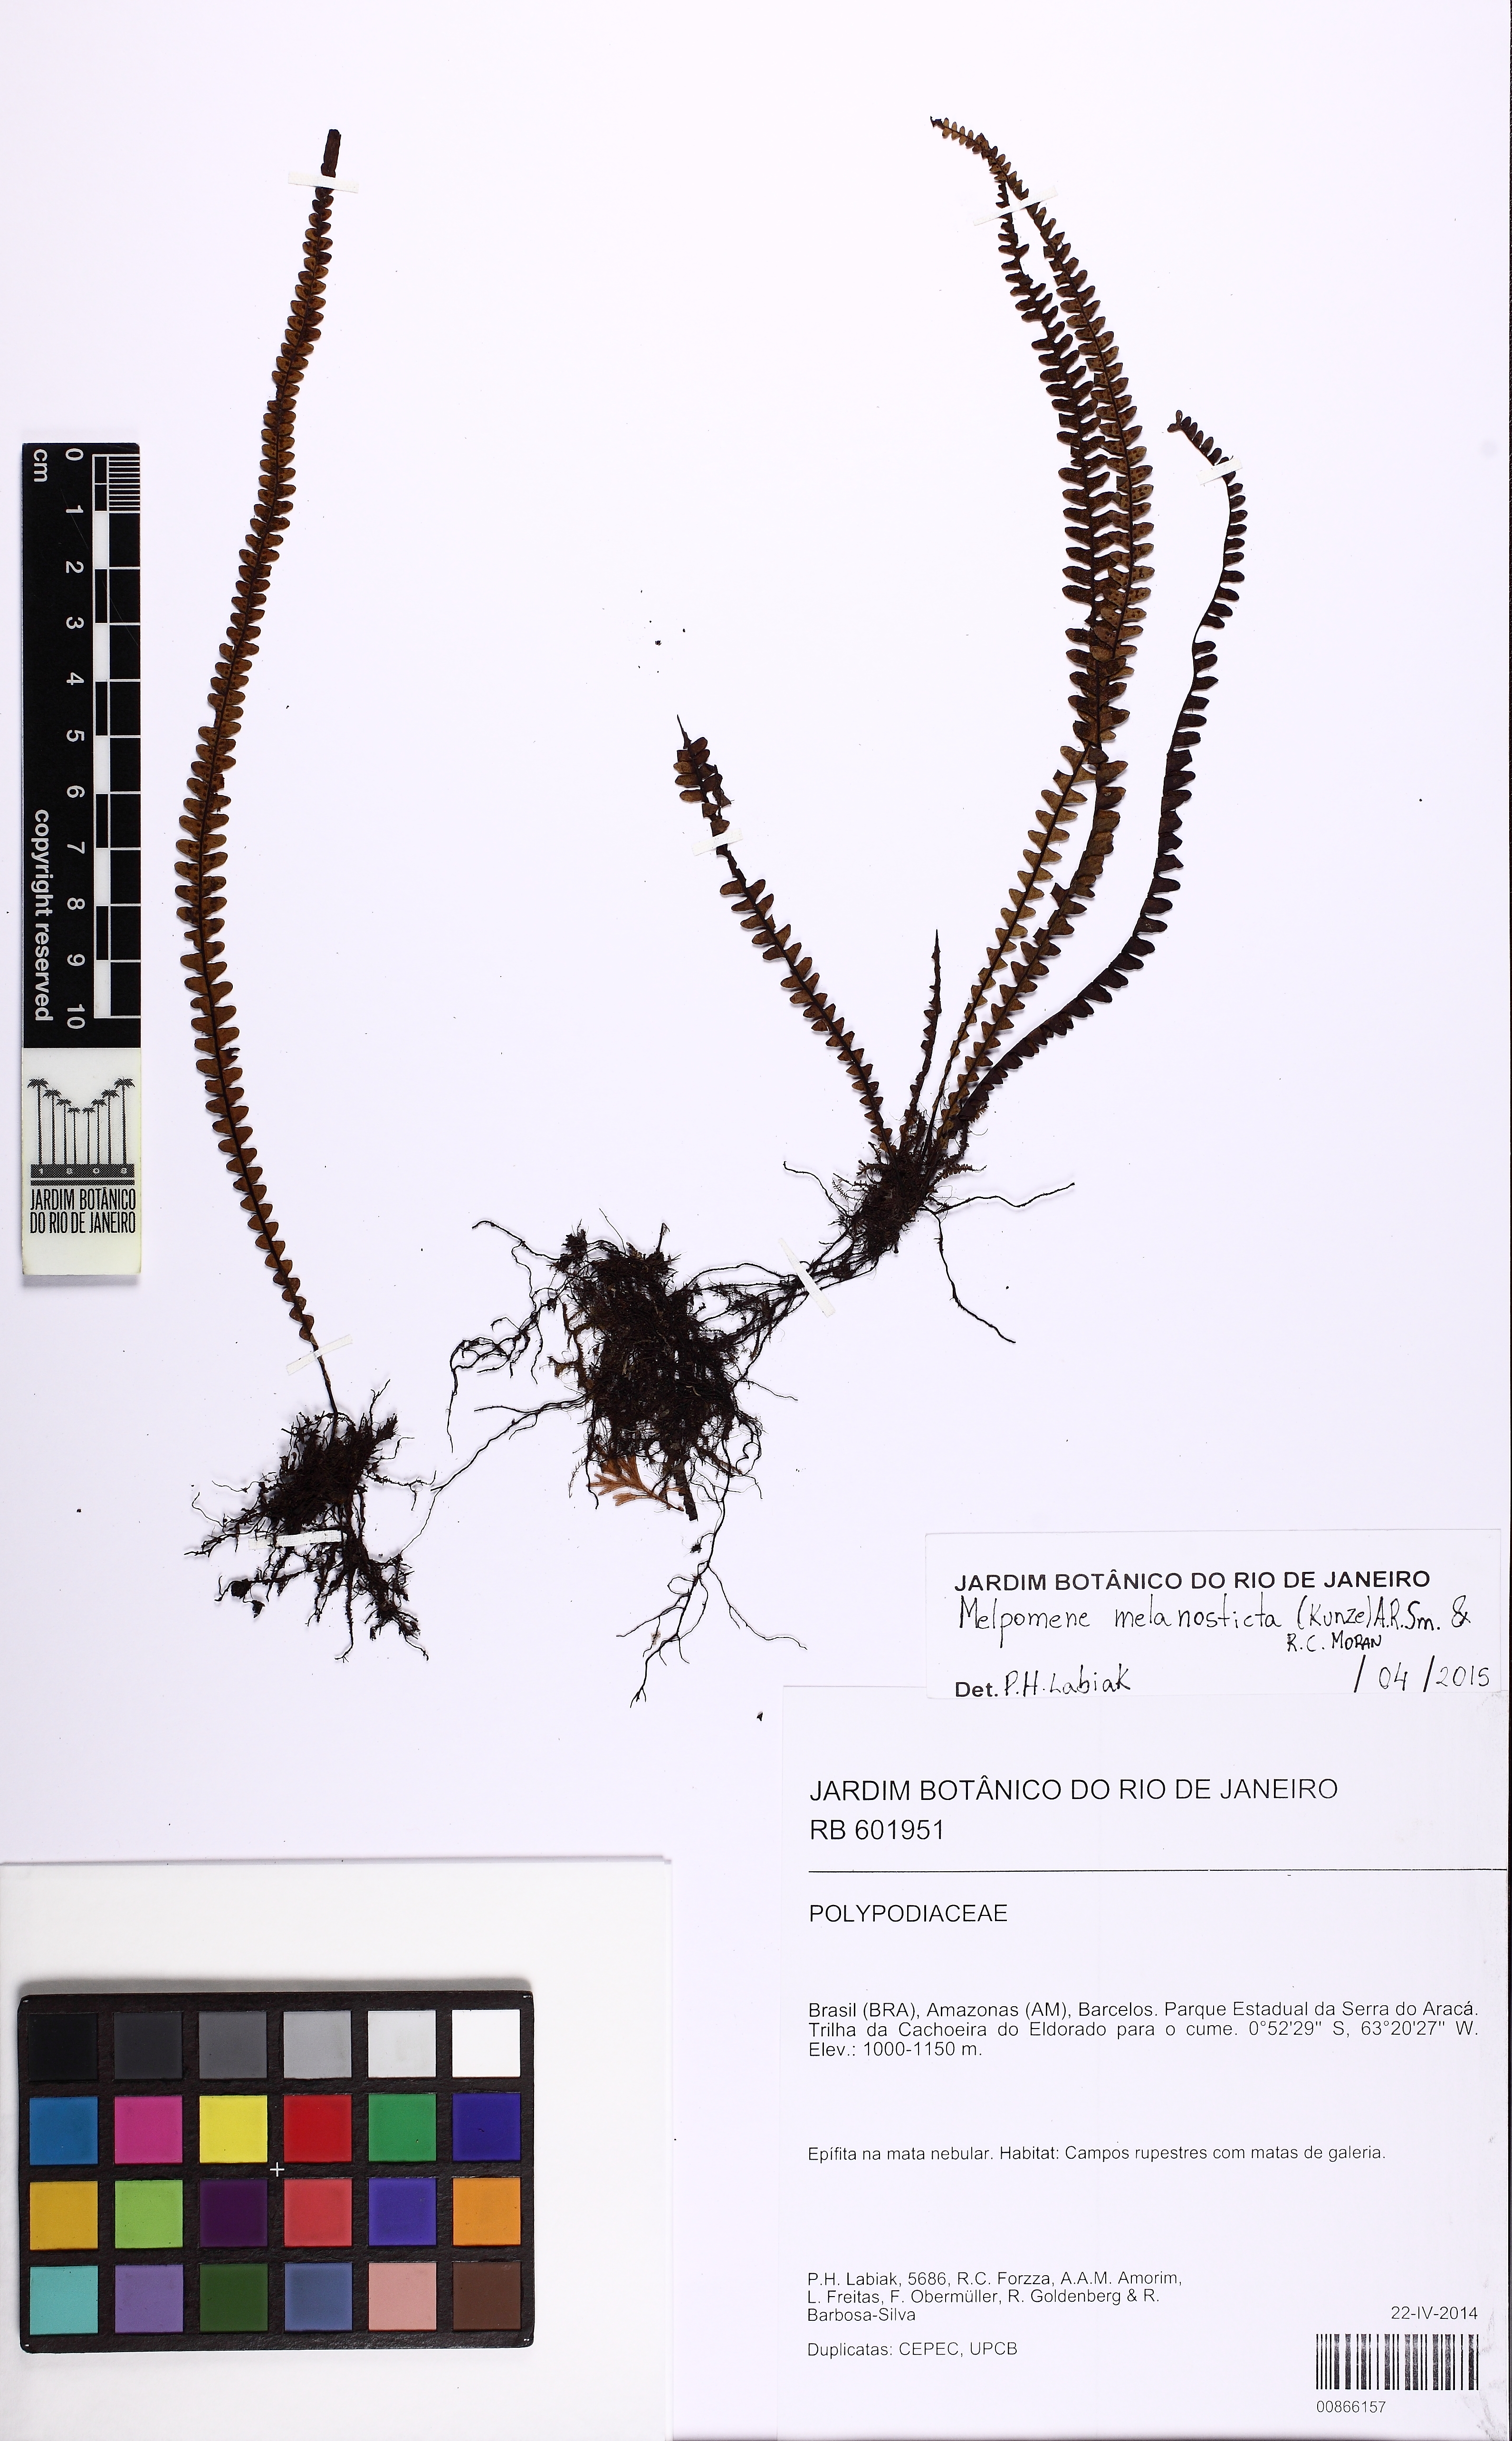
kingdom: Plantae
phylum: Tracheophyta
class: Polypodiopsida
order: Polypodiales
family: Polypodiaceae
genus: Melpomene
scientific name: Melpomene melanosticta
